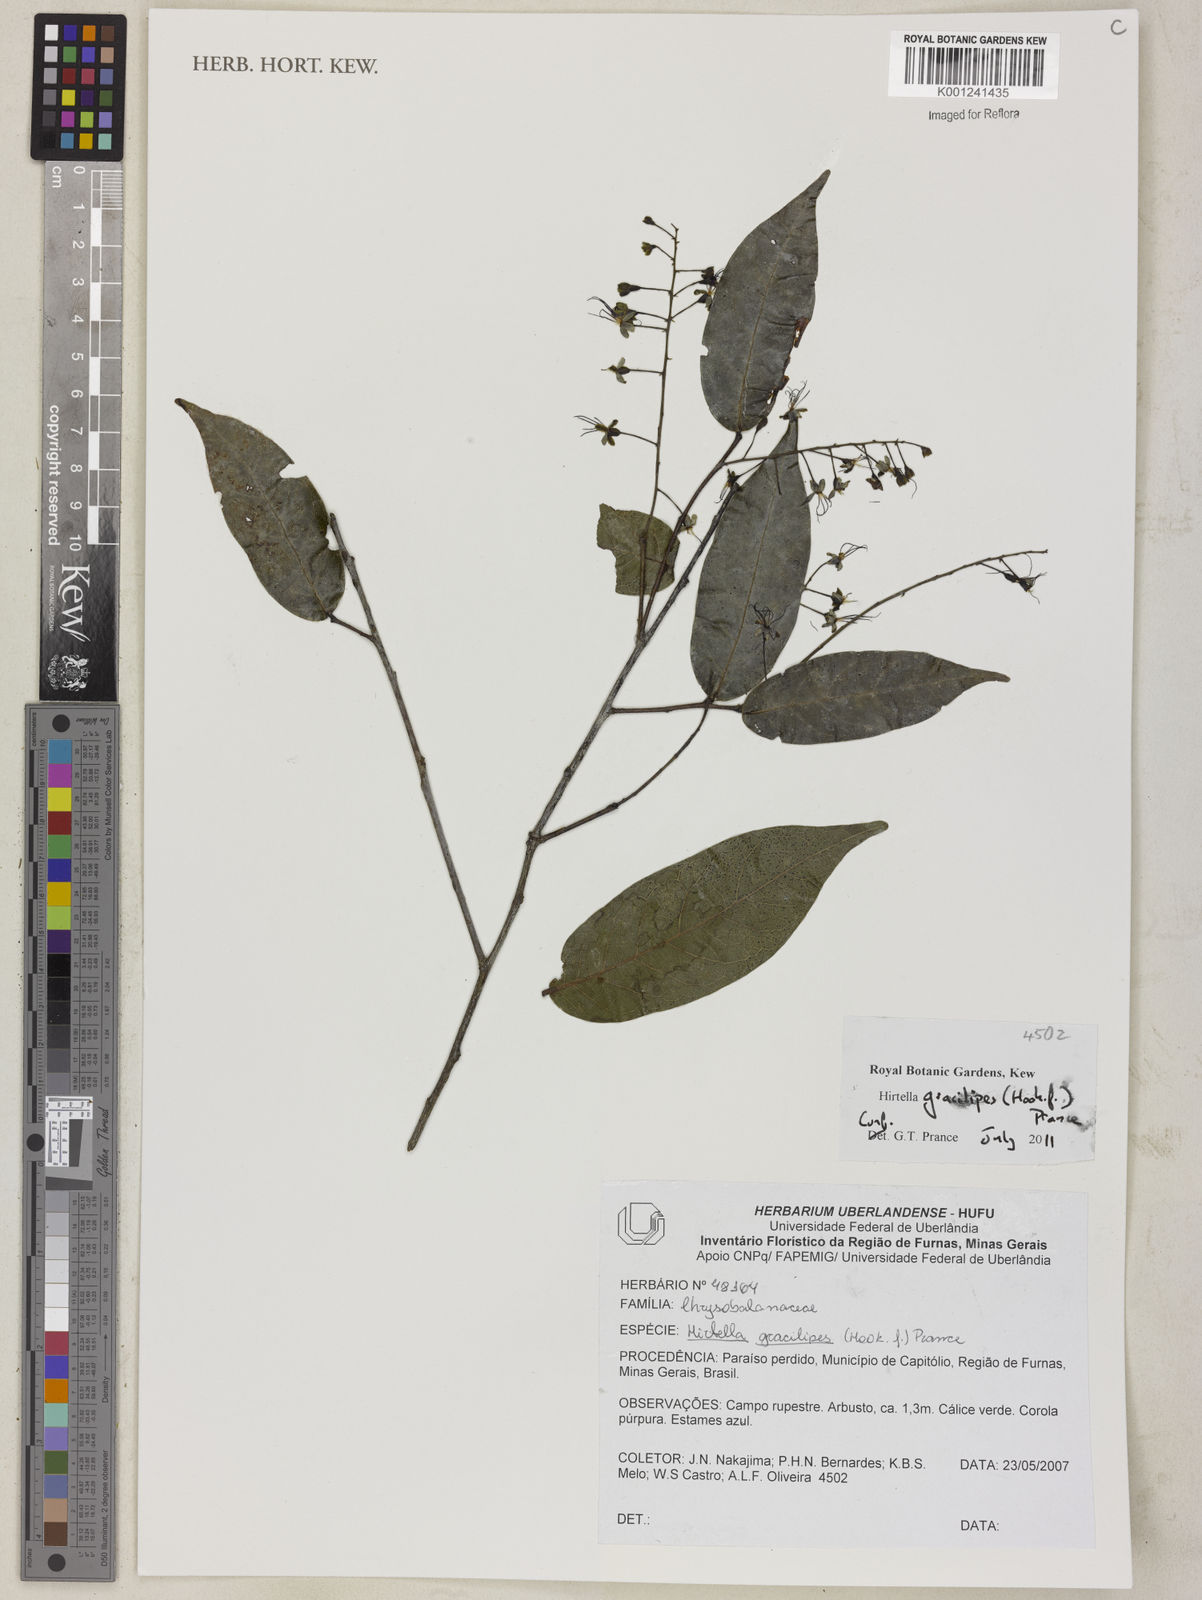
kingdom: Plantae
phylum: Tracheophyta
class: Magnoliopsida
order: Malpighiales
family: Chrysobalanaceae
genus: Hirtella
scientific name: Hirtella gracilipes
